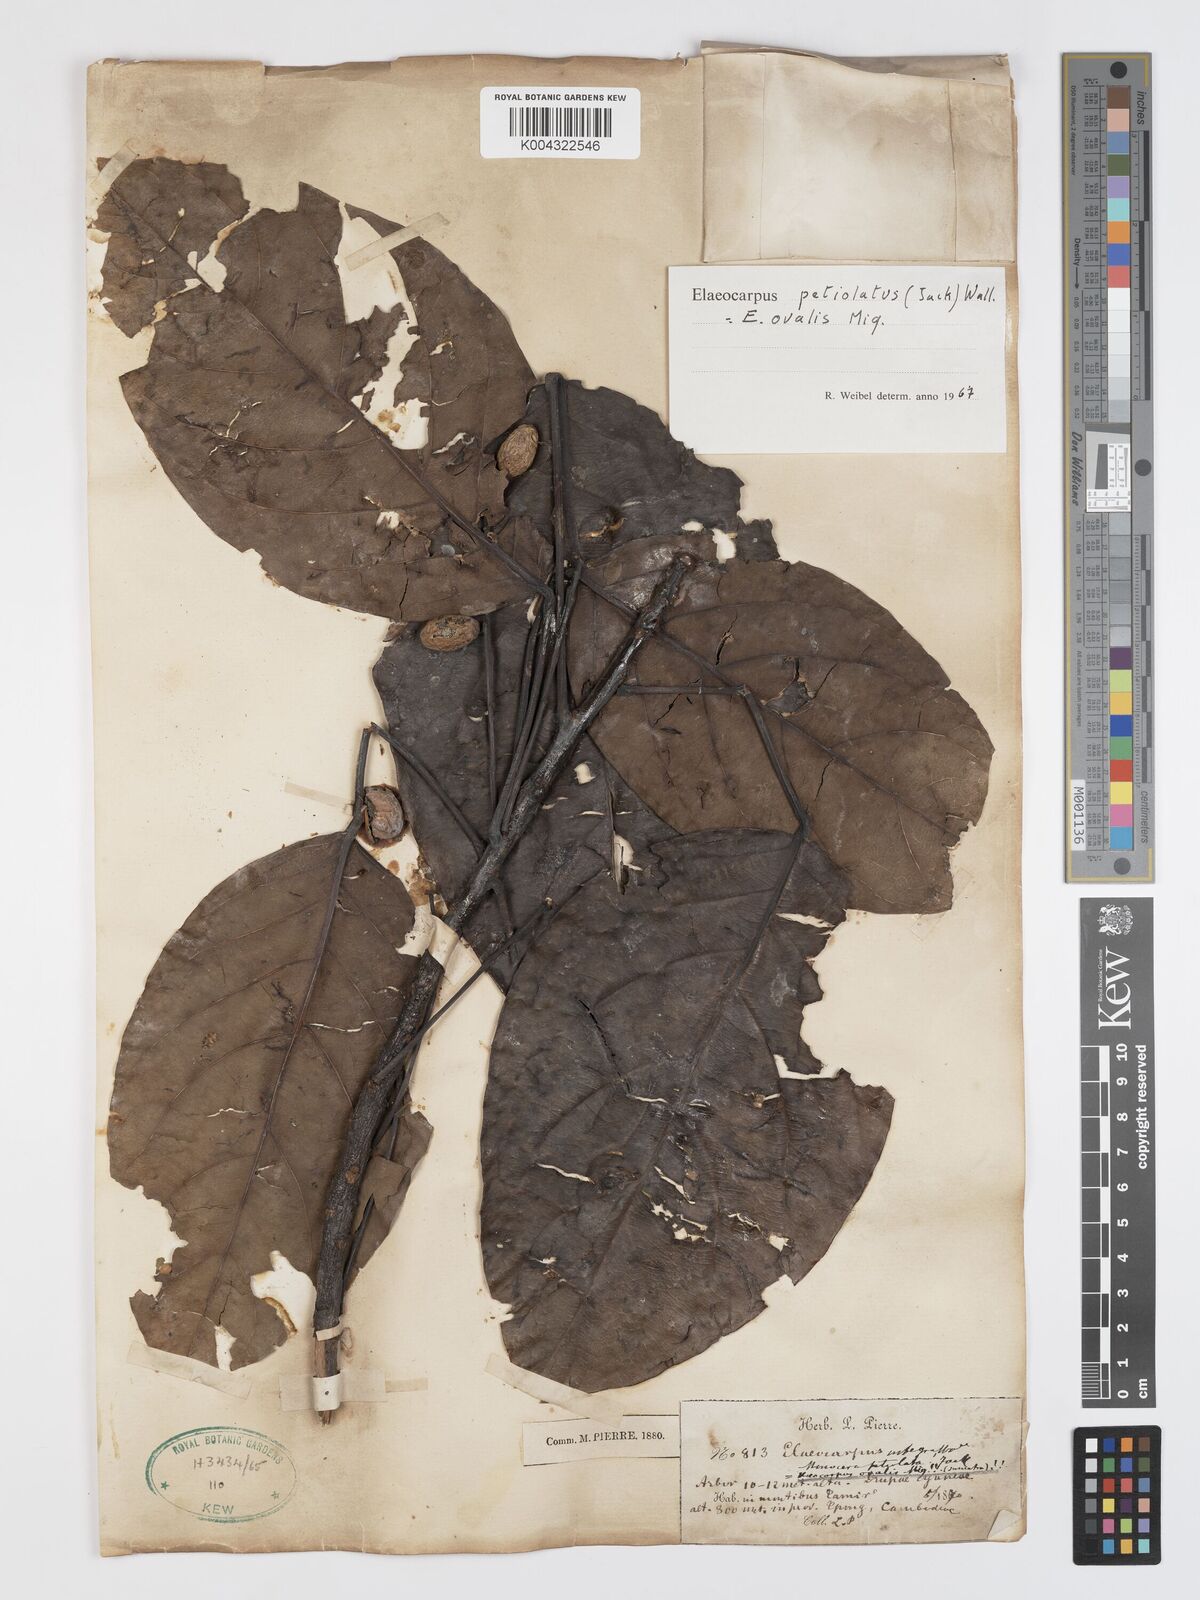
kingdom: Plantae
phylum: Tracheophyta
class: Magnoliopsida
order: Oxalidales
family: Elaeocarpaceae
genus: Elaeocarpus
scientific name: Elaeocarpus petiolatus
